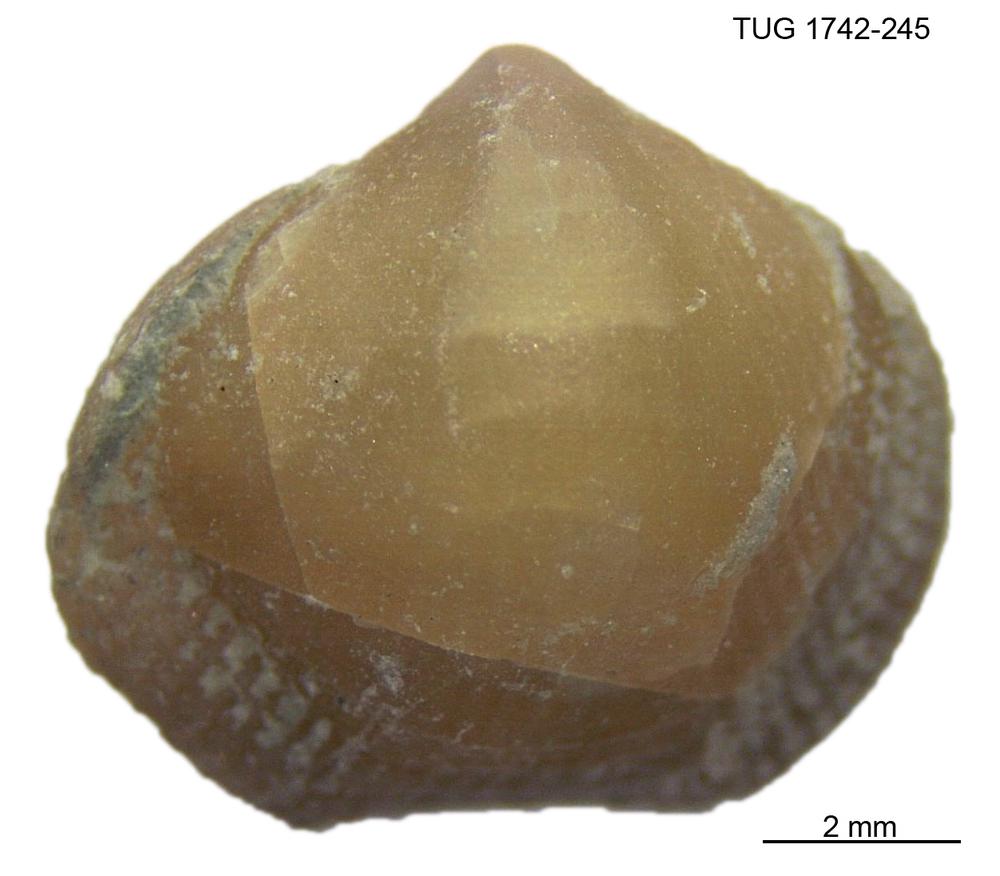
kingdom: Animalia
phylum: Brachiopoda
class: Rhynchonellata
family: Anazygidae
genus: Pentlandella
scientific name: Pentlandella
